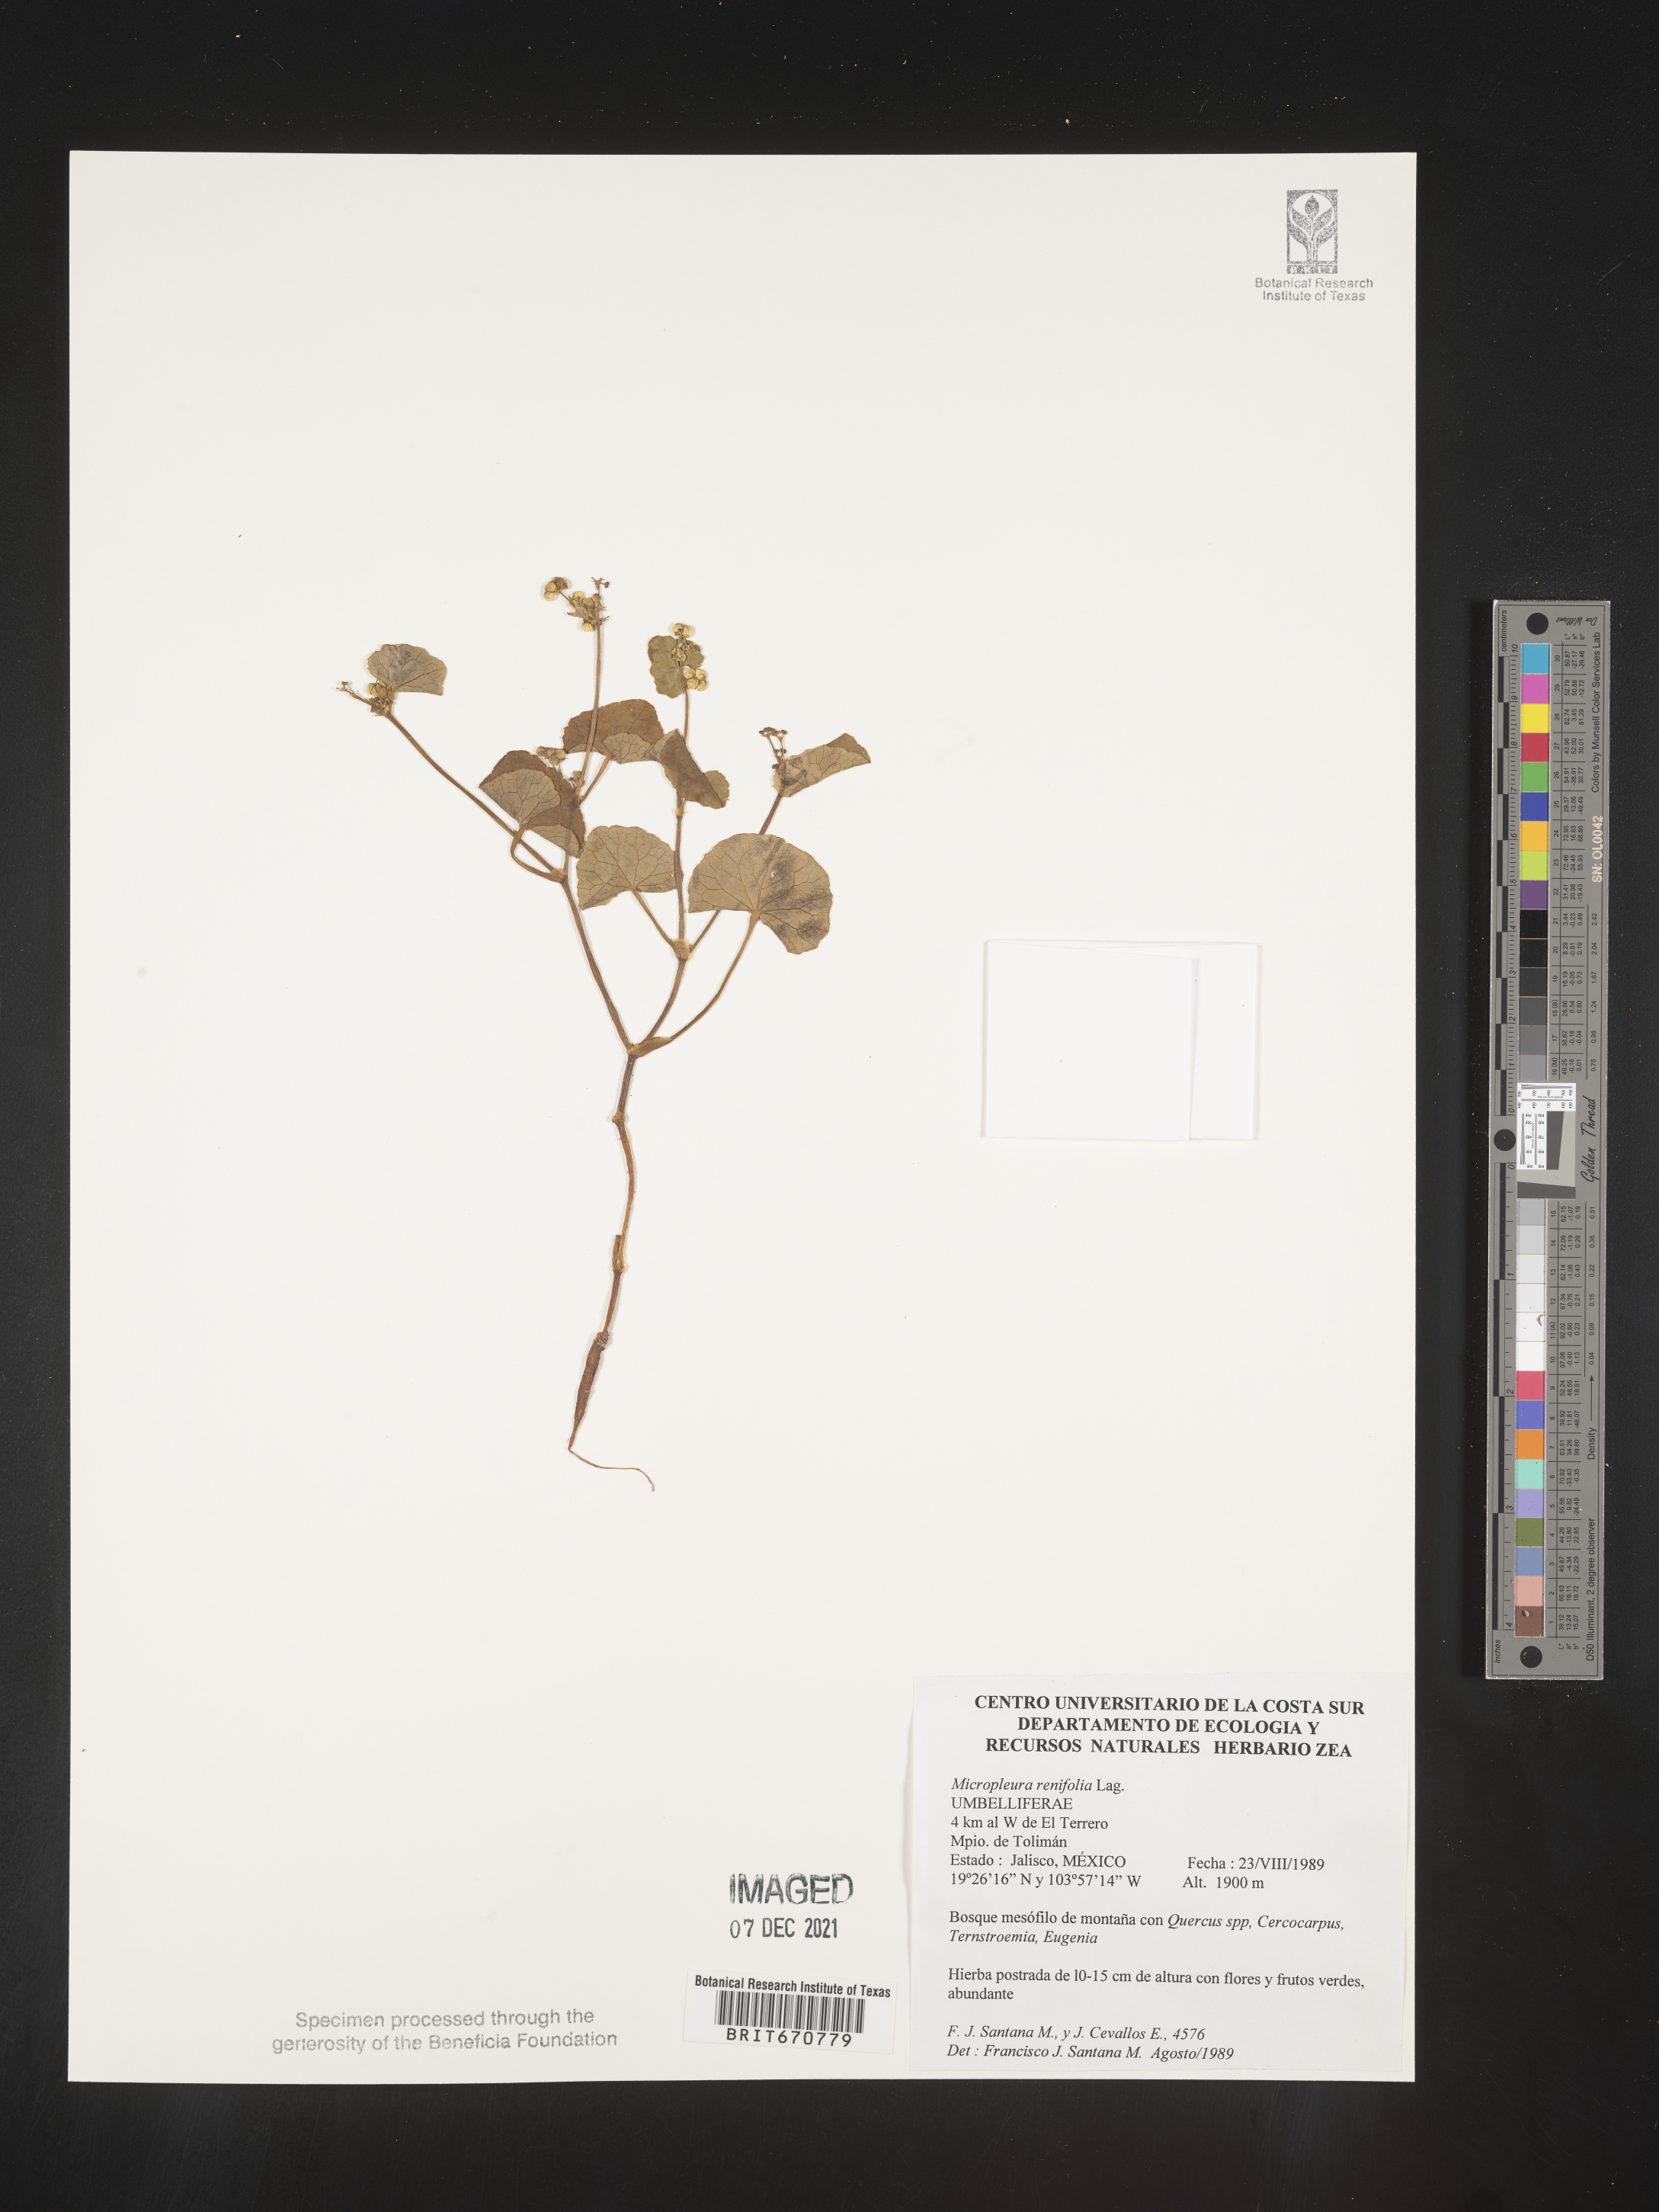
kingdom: Plantae
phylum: Tracheophyta
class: Magnoliopsida
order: Apiales
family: Apiaceae
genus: Micropleura
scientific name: Micropleura
